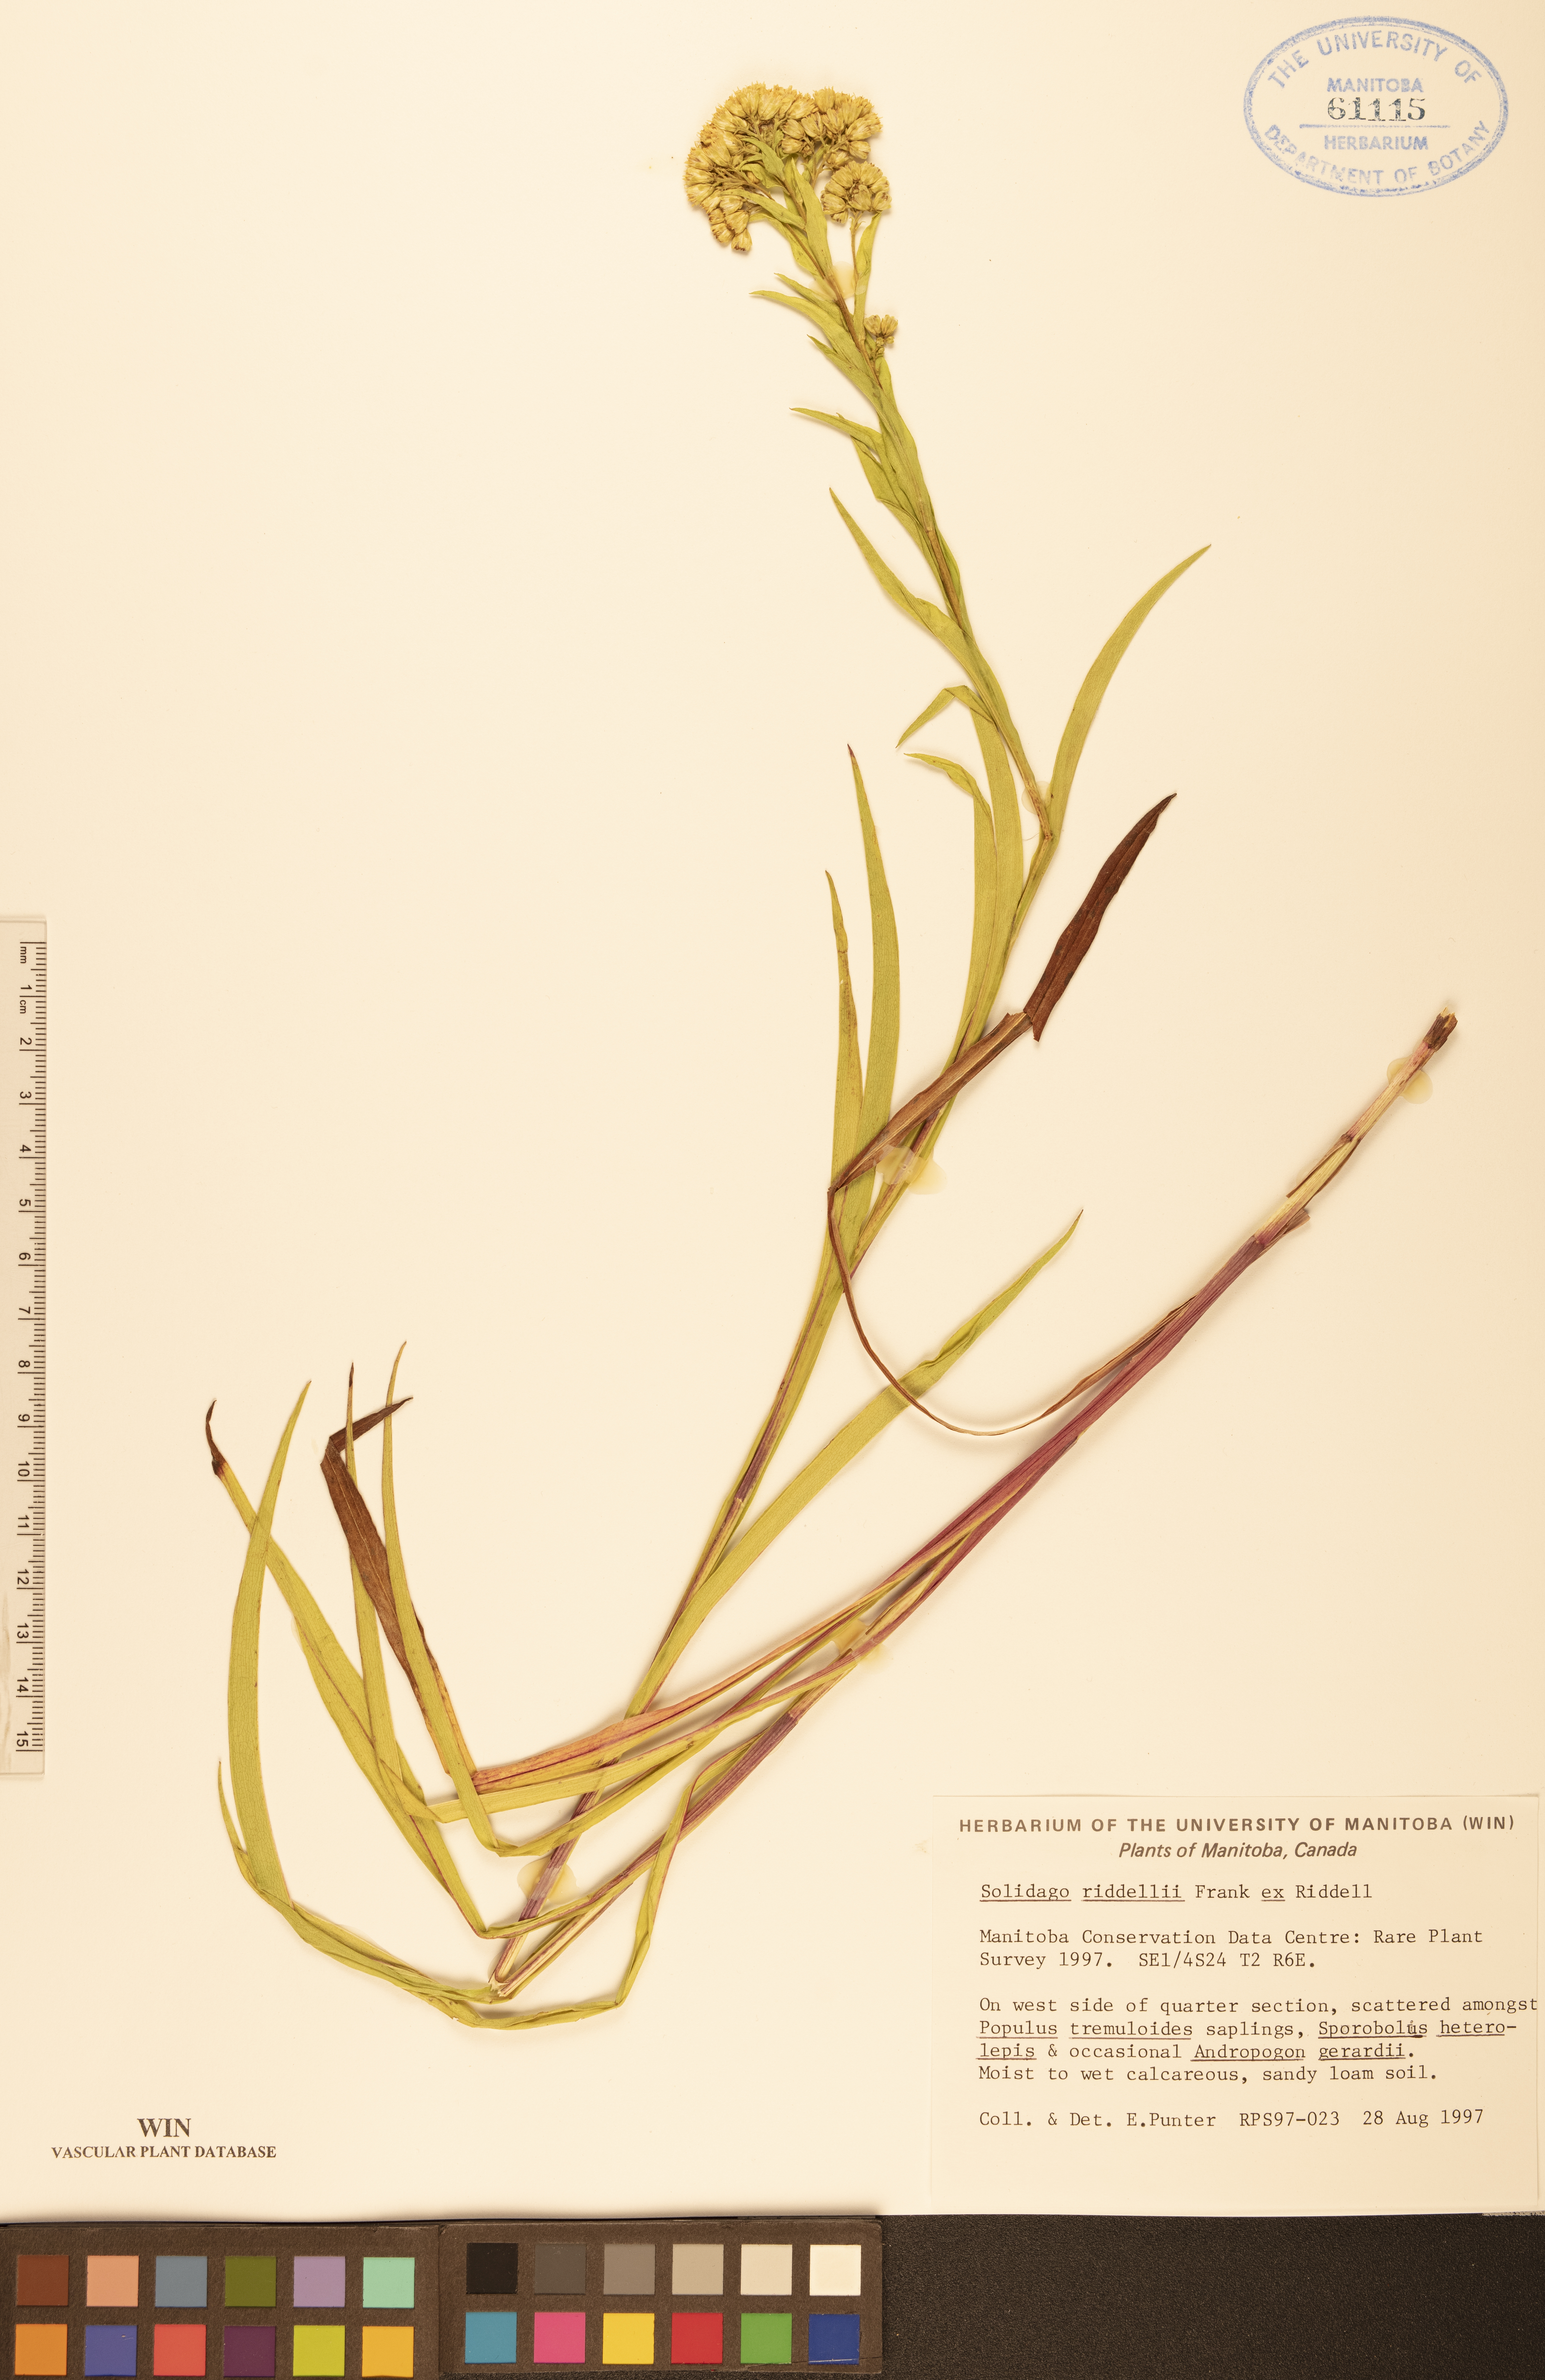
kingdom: Plantae
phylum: Tracheophyta
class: Magnoliopsida
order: Asterales
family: Asteraceae
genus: Solidago
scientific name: Solidago riddellii
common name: Riddell's goldenrod
